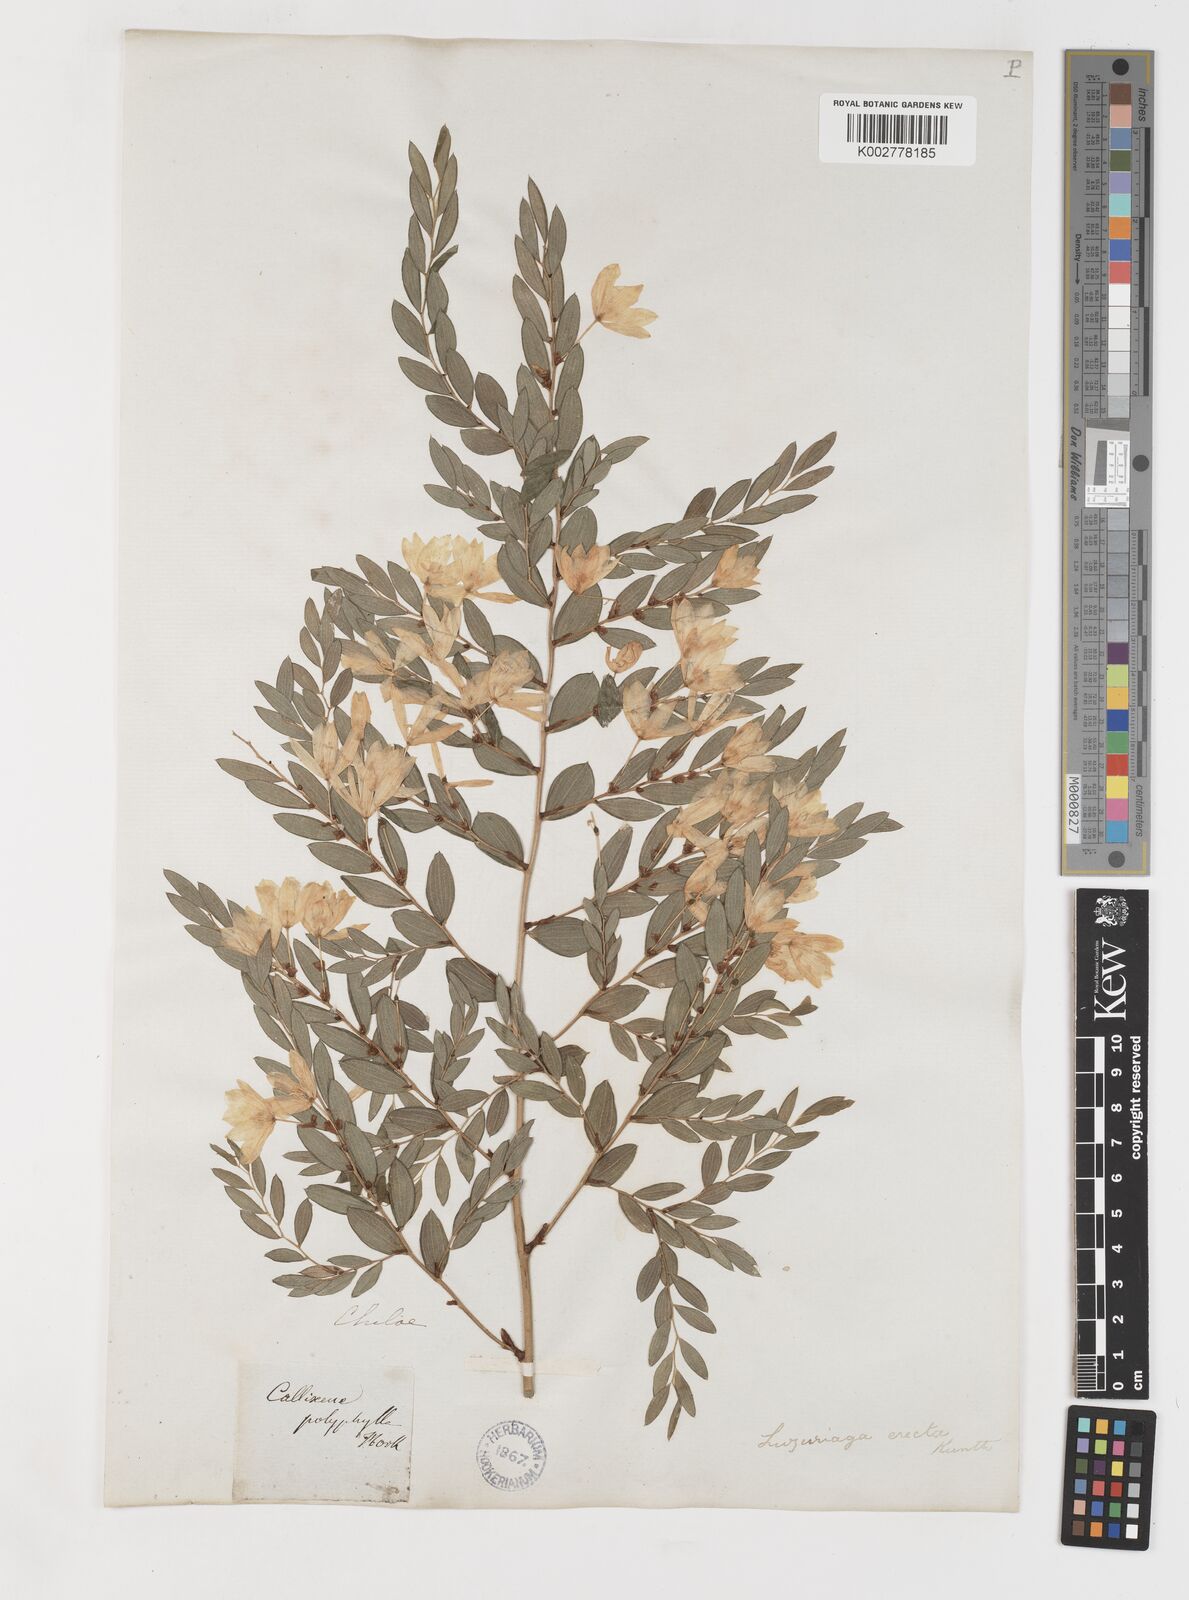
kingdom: Plantae
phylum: Tracheophyta
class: Liliopsida
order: Liliales
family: Alstroemeriaceae
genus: Luzuriaga
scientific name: Luzuriaga polyphylla
